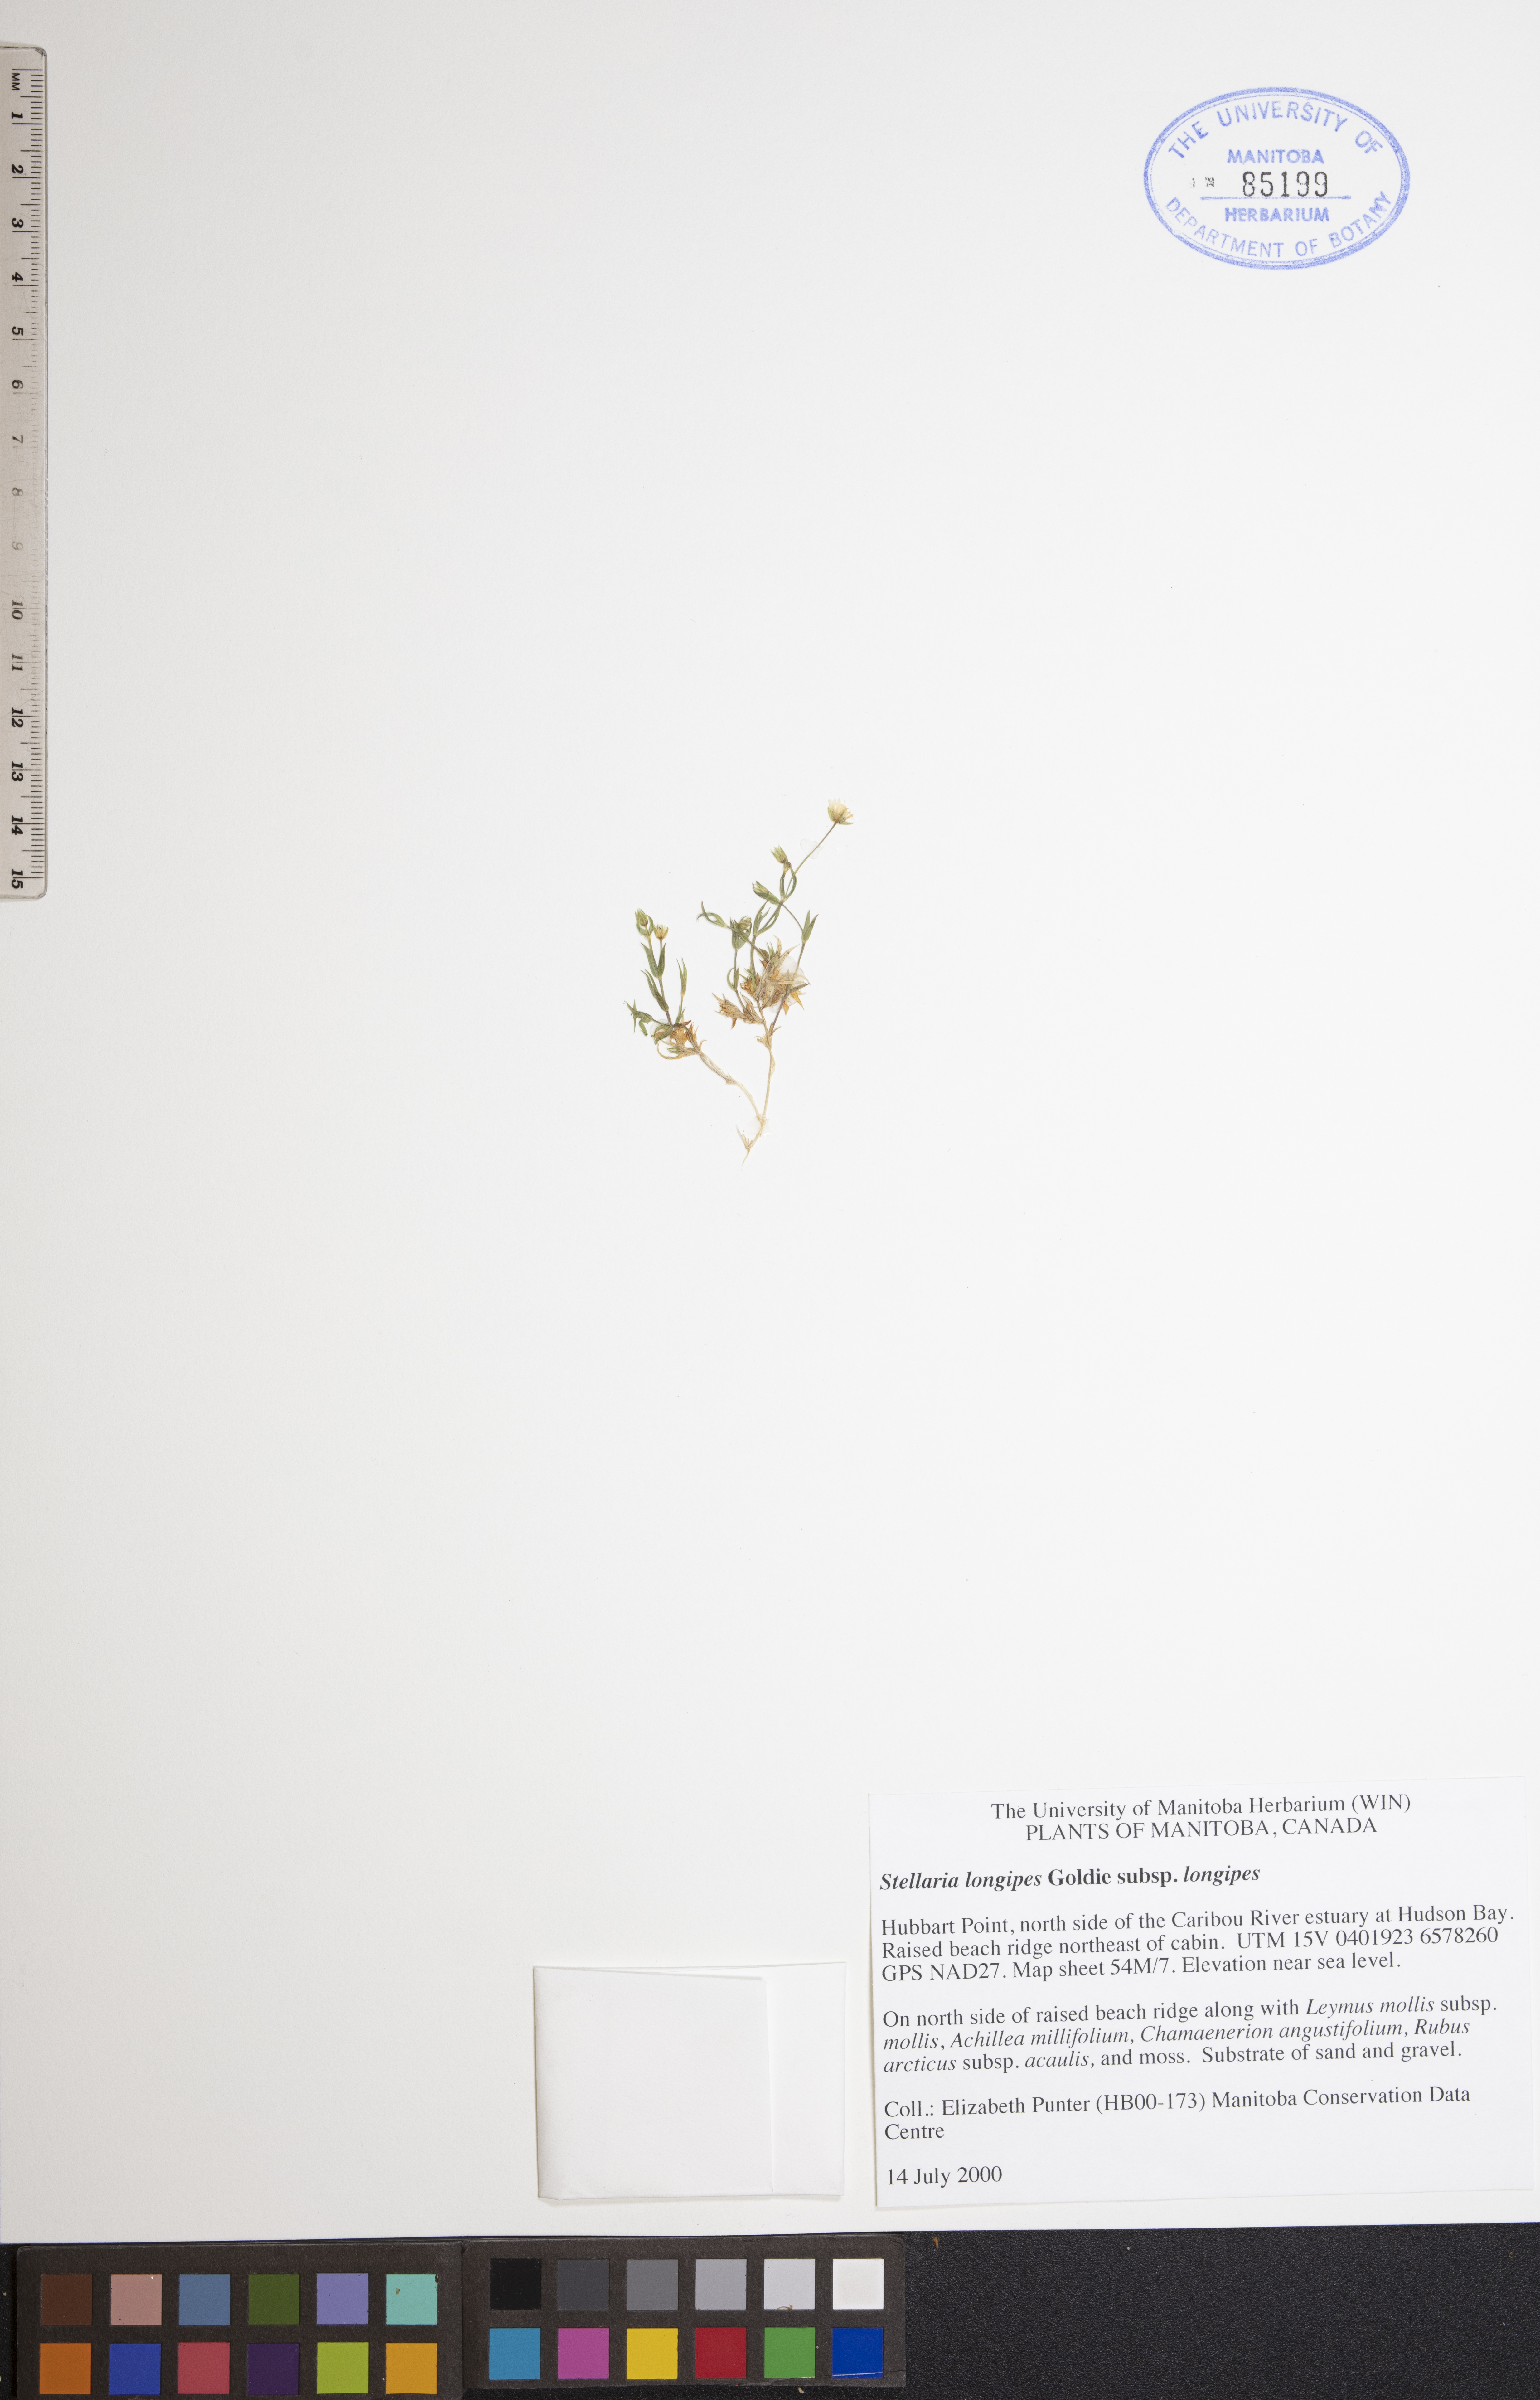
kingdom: Plantae
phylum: Tracheophyta
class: Magnoliopsida
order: Caryophyllales
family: Caryophyllaceae
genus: Stellaria
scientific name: Stellaria longipes
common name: Goldie's starwort
